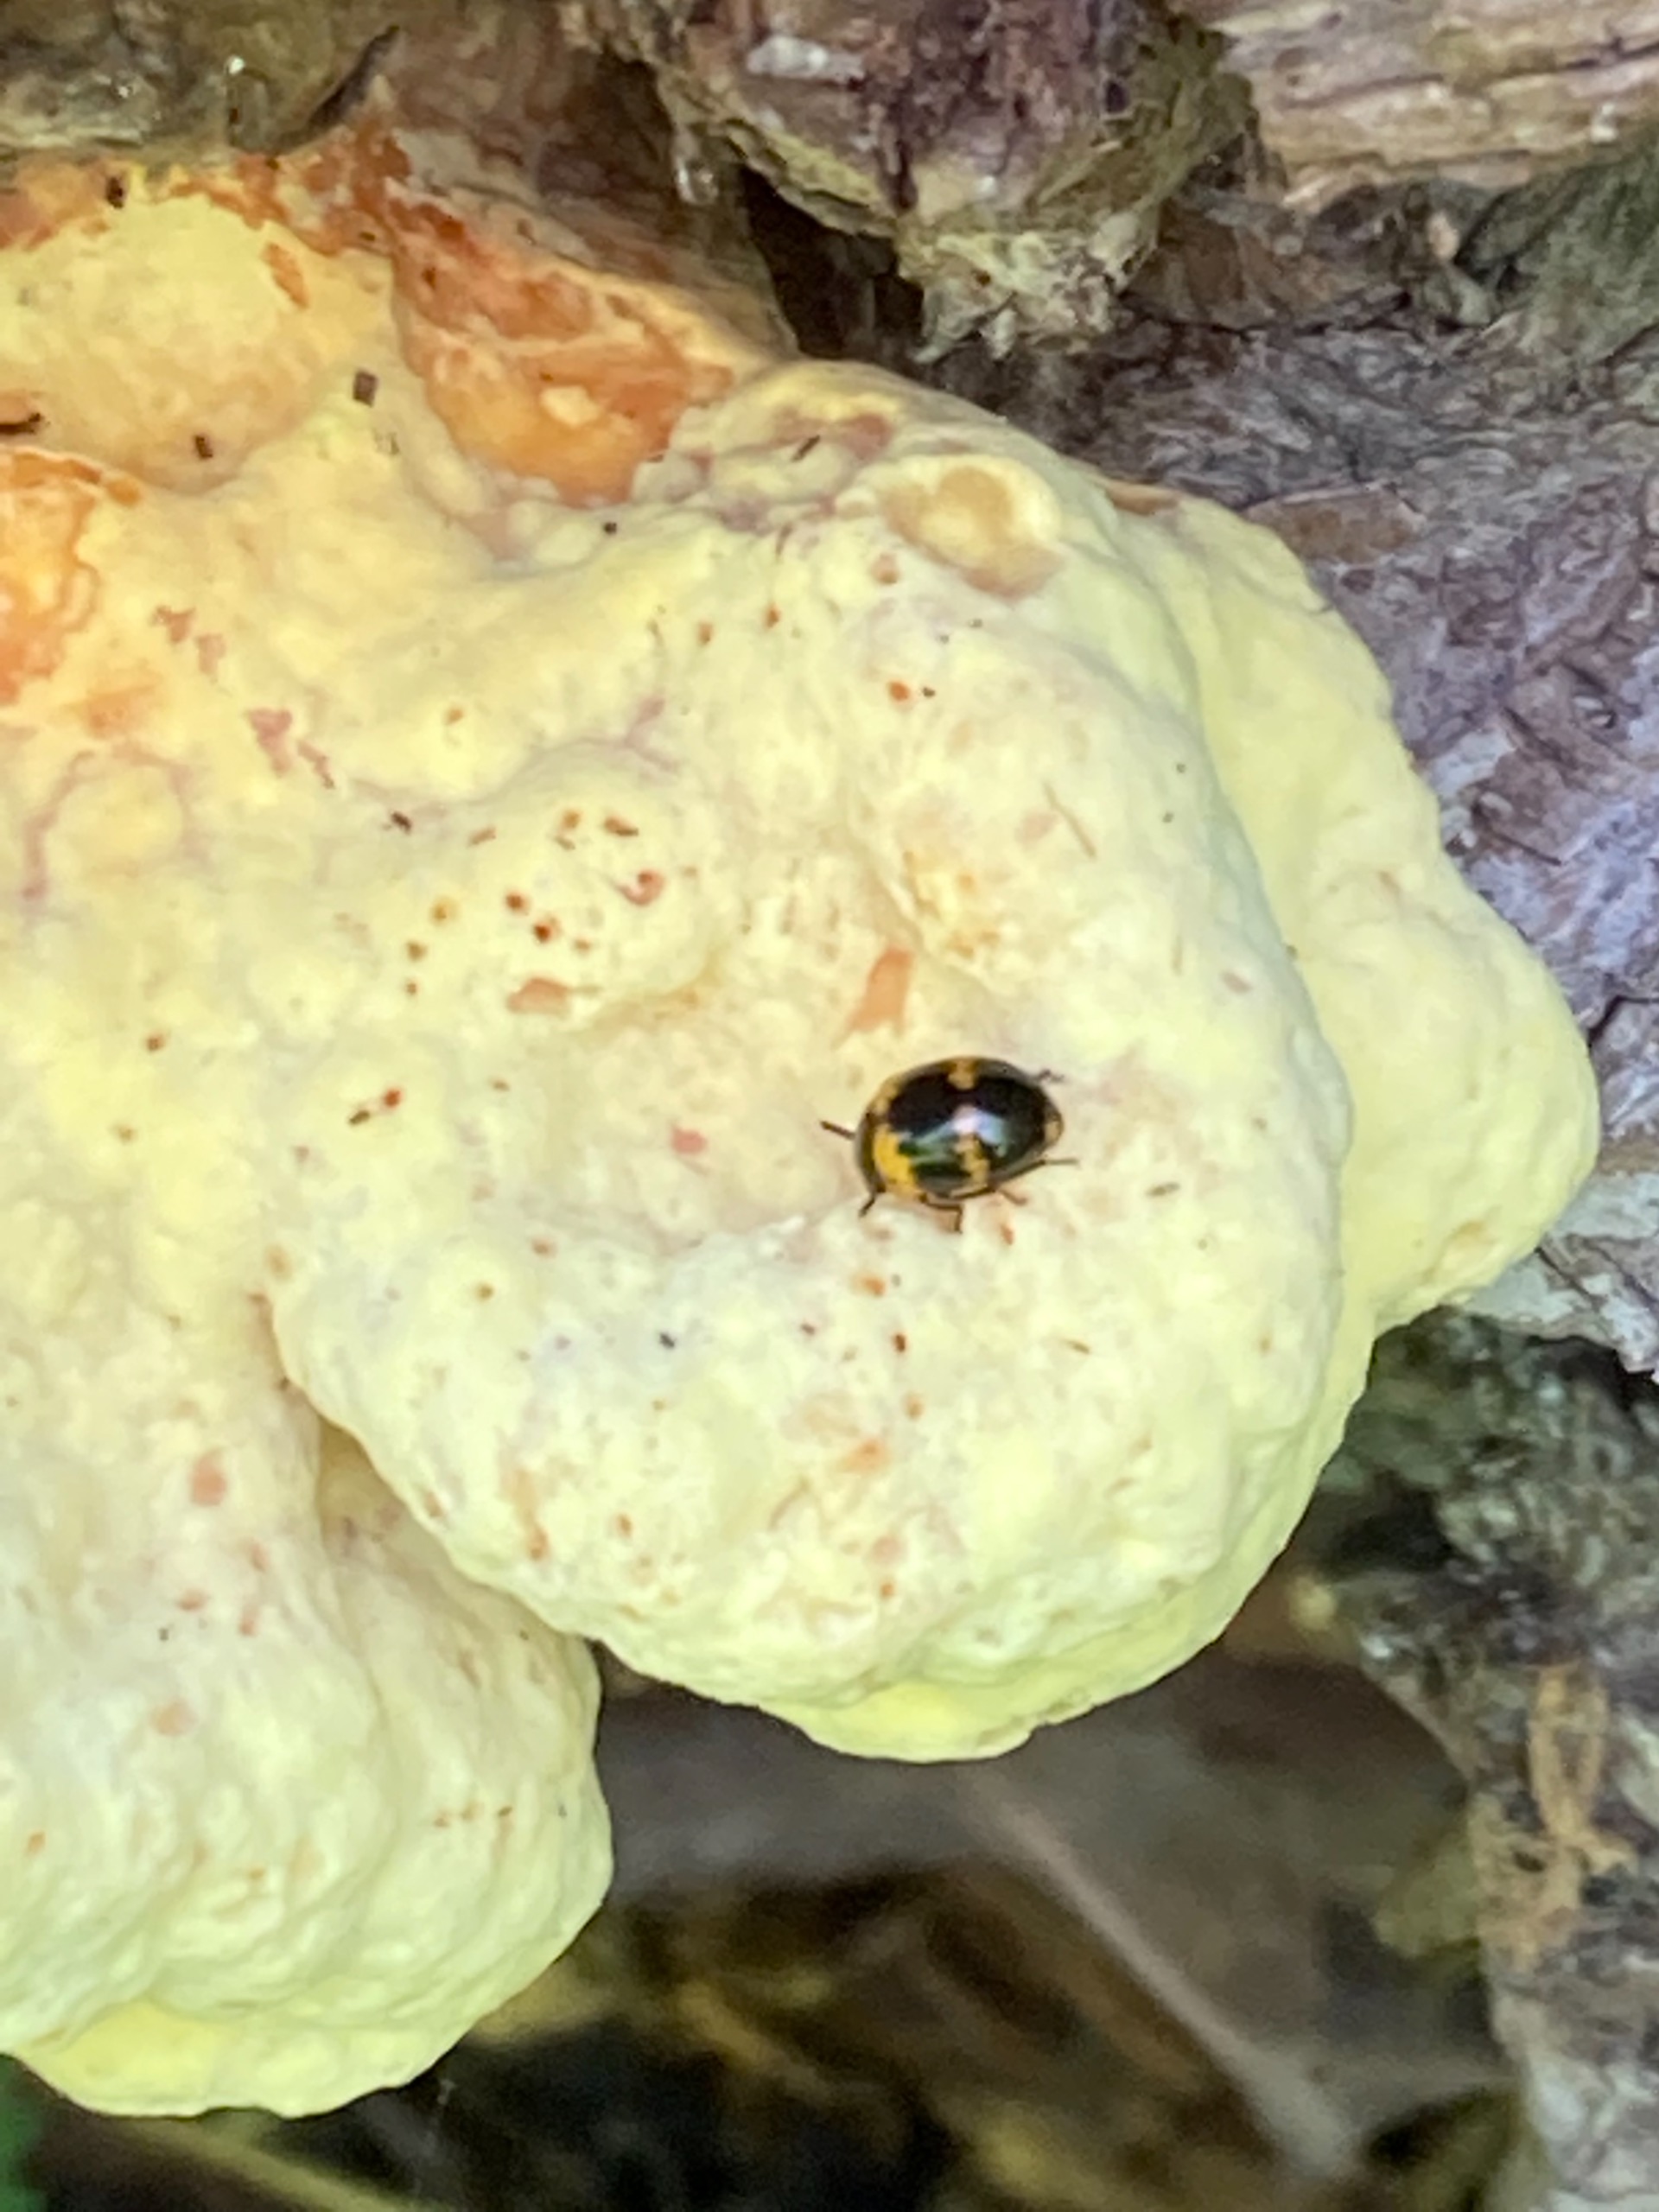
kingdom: Fungi
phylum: Basidiomycota
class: Agaricomycetes
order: Polyporales
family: Laetiporaceae
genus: Laetiporus
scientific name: Laetiporus sulphureus
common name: Svovlporesvamp
